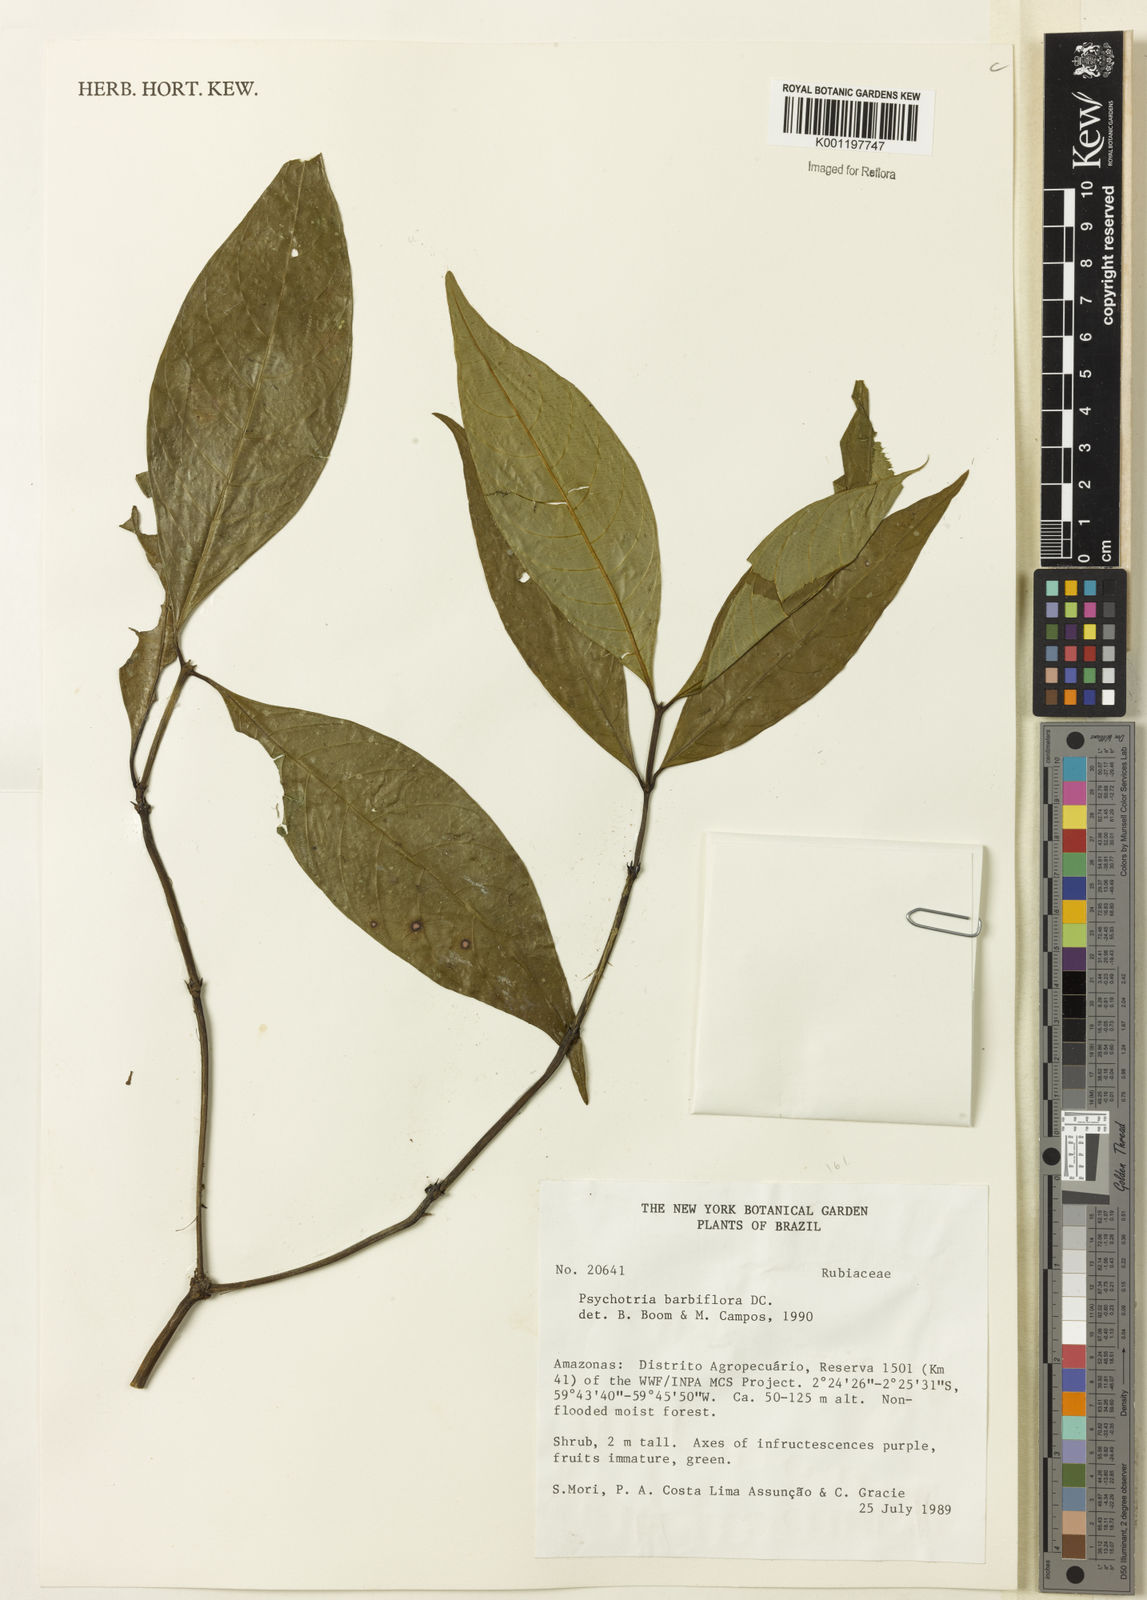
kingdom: Plantae
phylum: Tracheophyta
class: Magnoliopsida
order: Gentianales
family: Rubiaceae
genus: Palicourea
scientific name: Palicourea hoffmannseggiana
